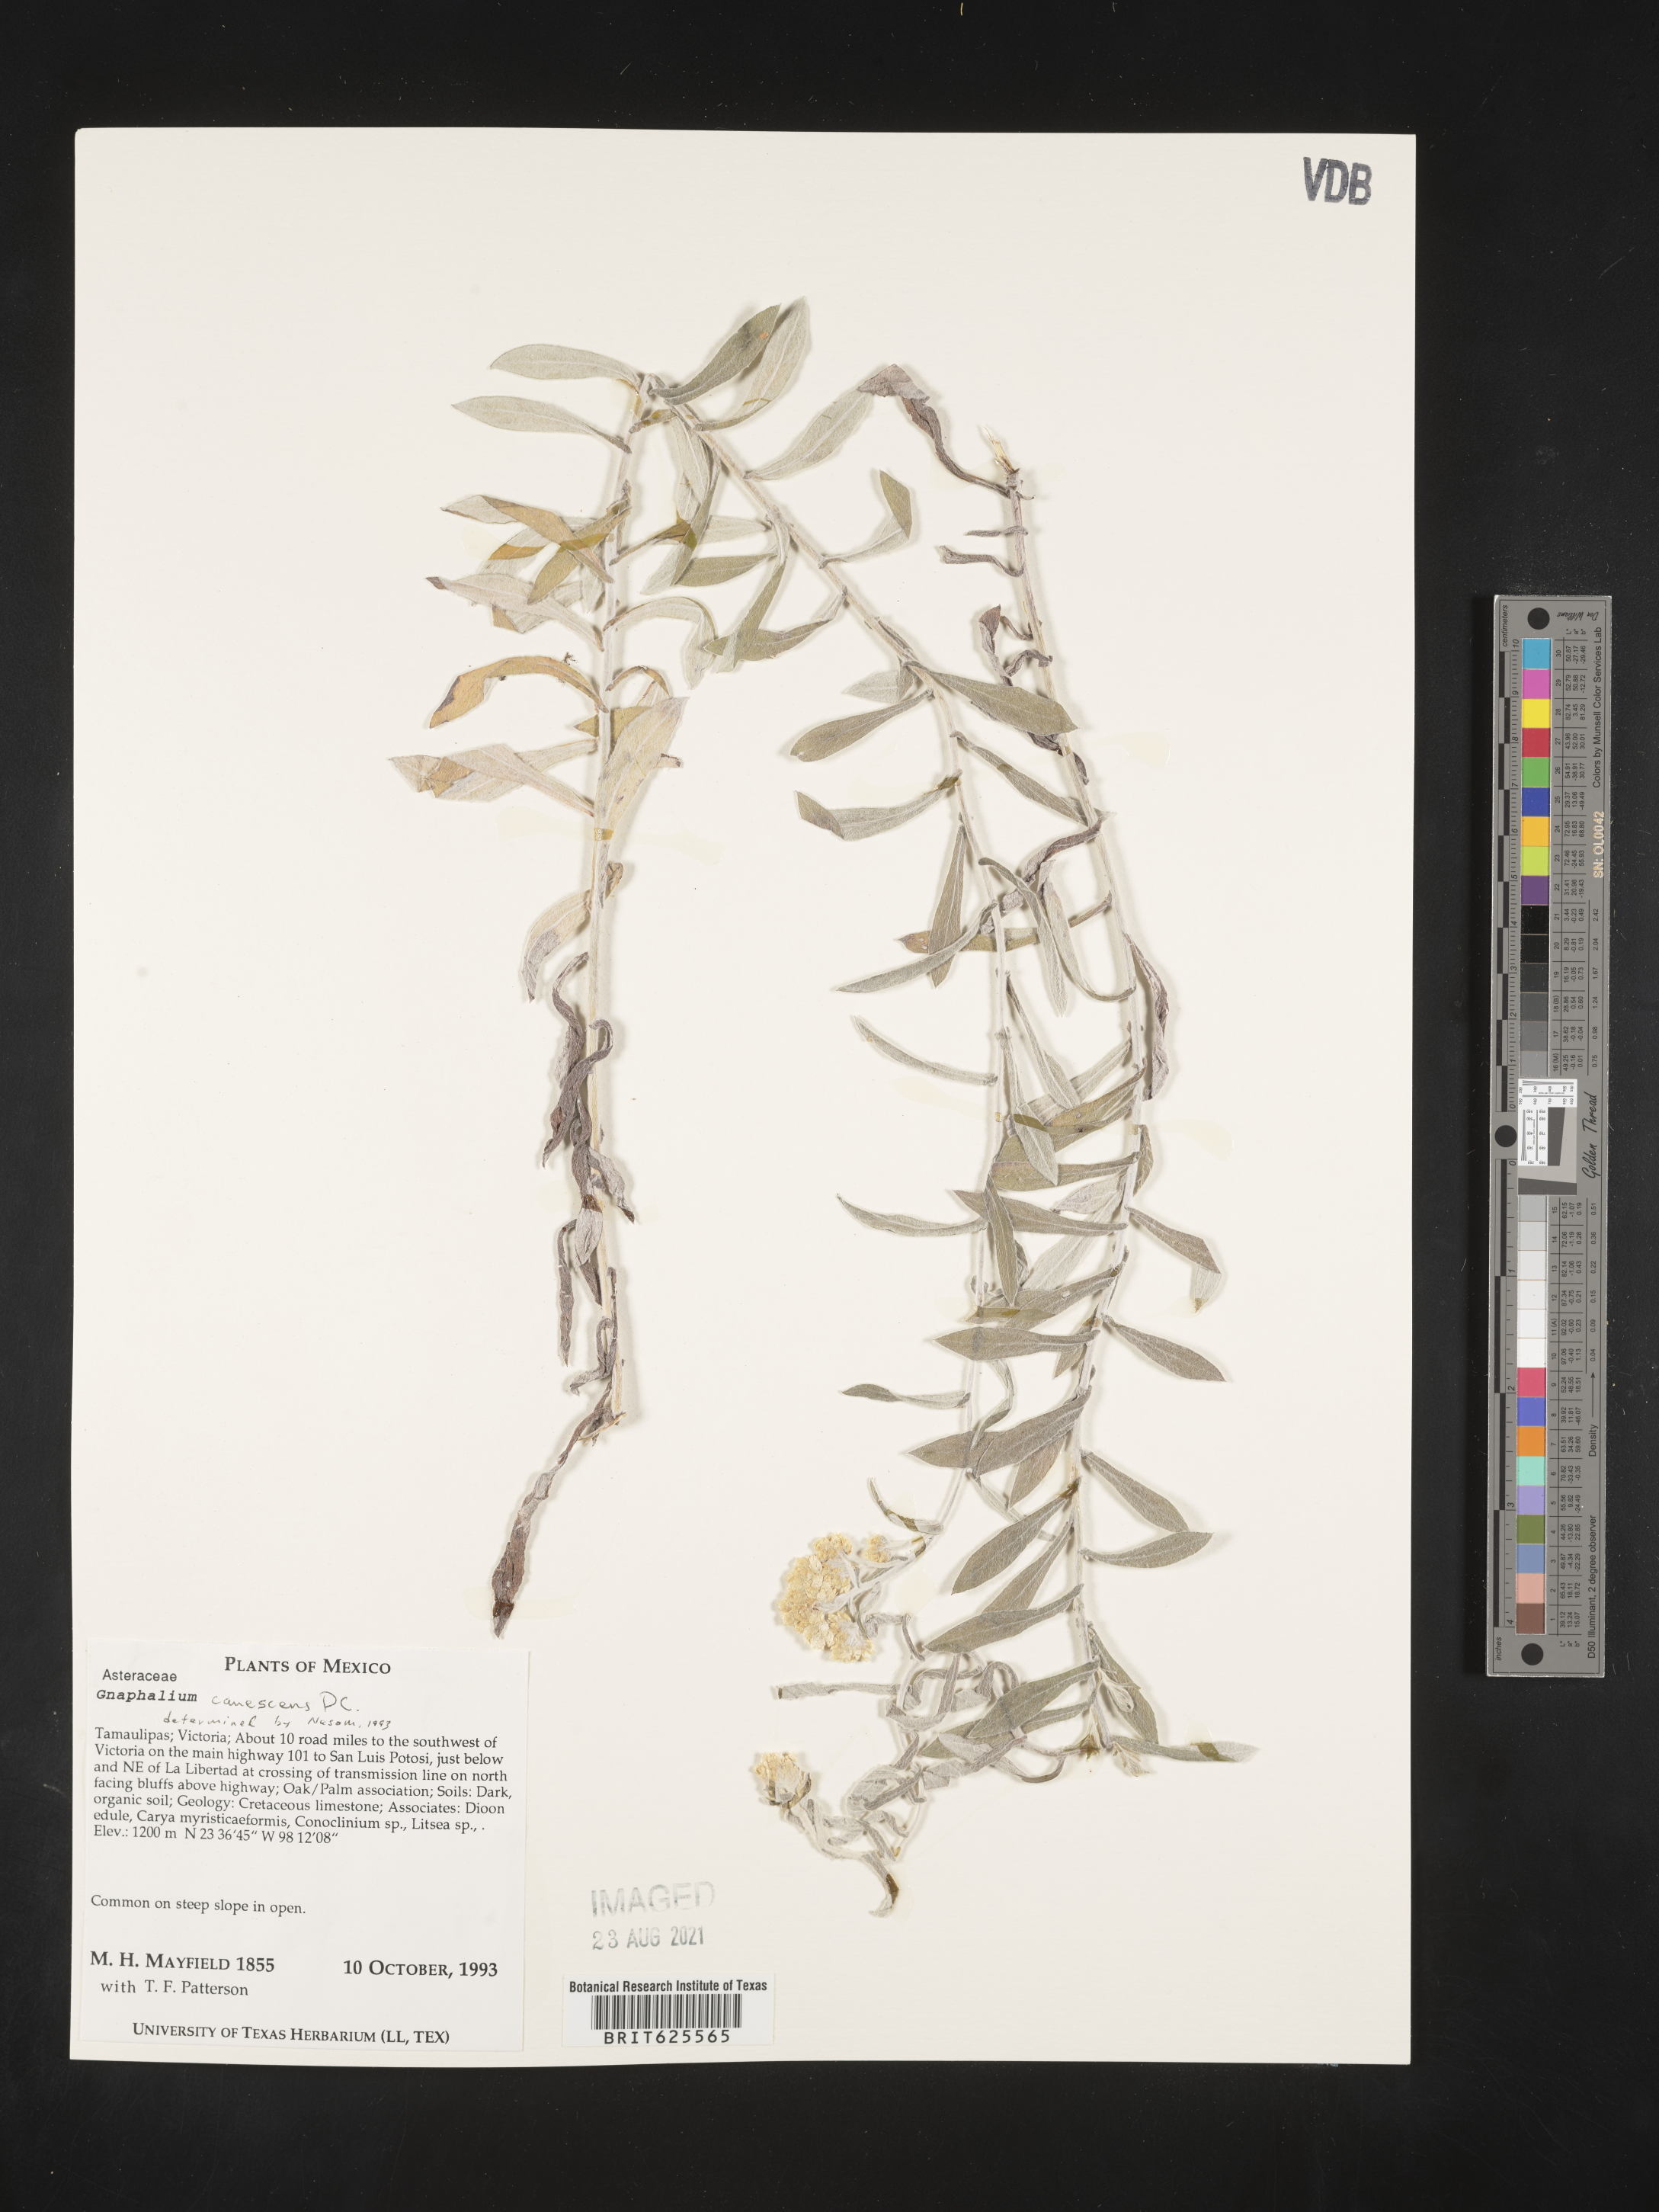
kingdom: Plantae
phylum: Tracheophyta
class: Magnoliopsida
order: Asterales
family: Asteraceae
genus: Gnaphalium
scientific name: Gnaphalium
